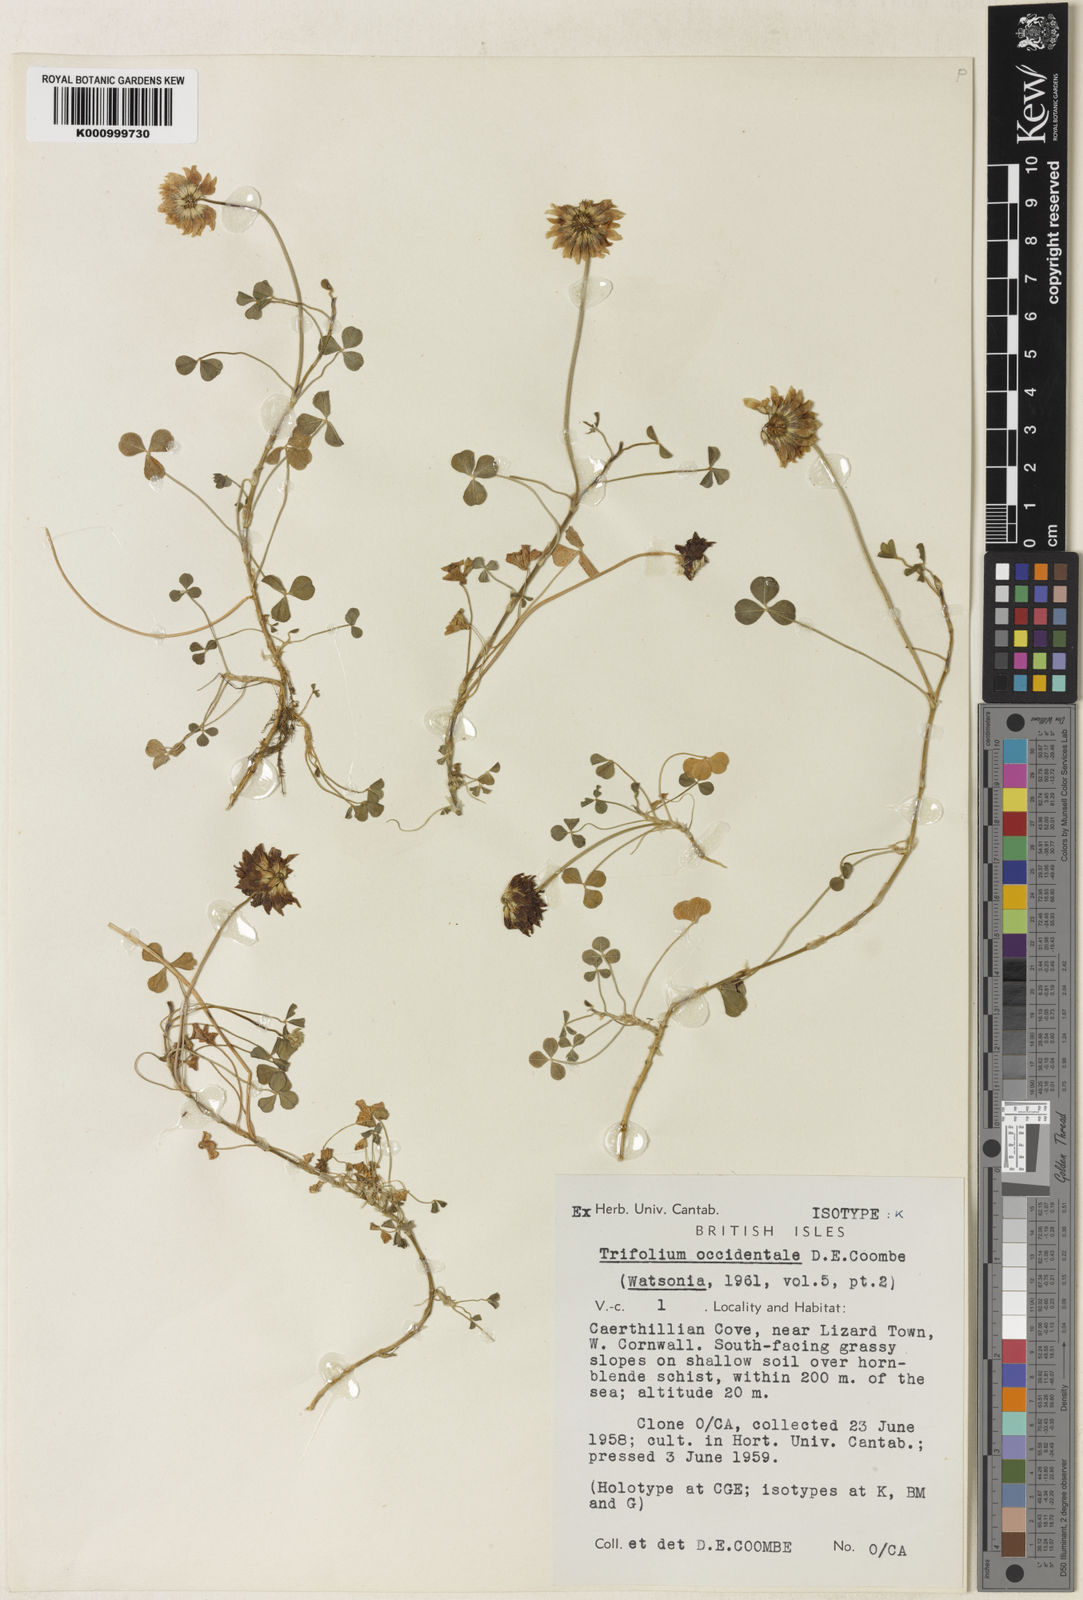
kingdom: Plantae
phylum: Tracheophyta
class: Magnoliopsida
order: Fabales
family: Fabaceae
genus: Trifolium
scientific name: Trifolium occidentale
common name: Western clover
